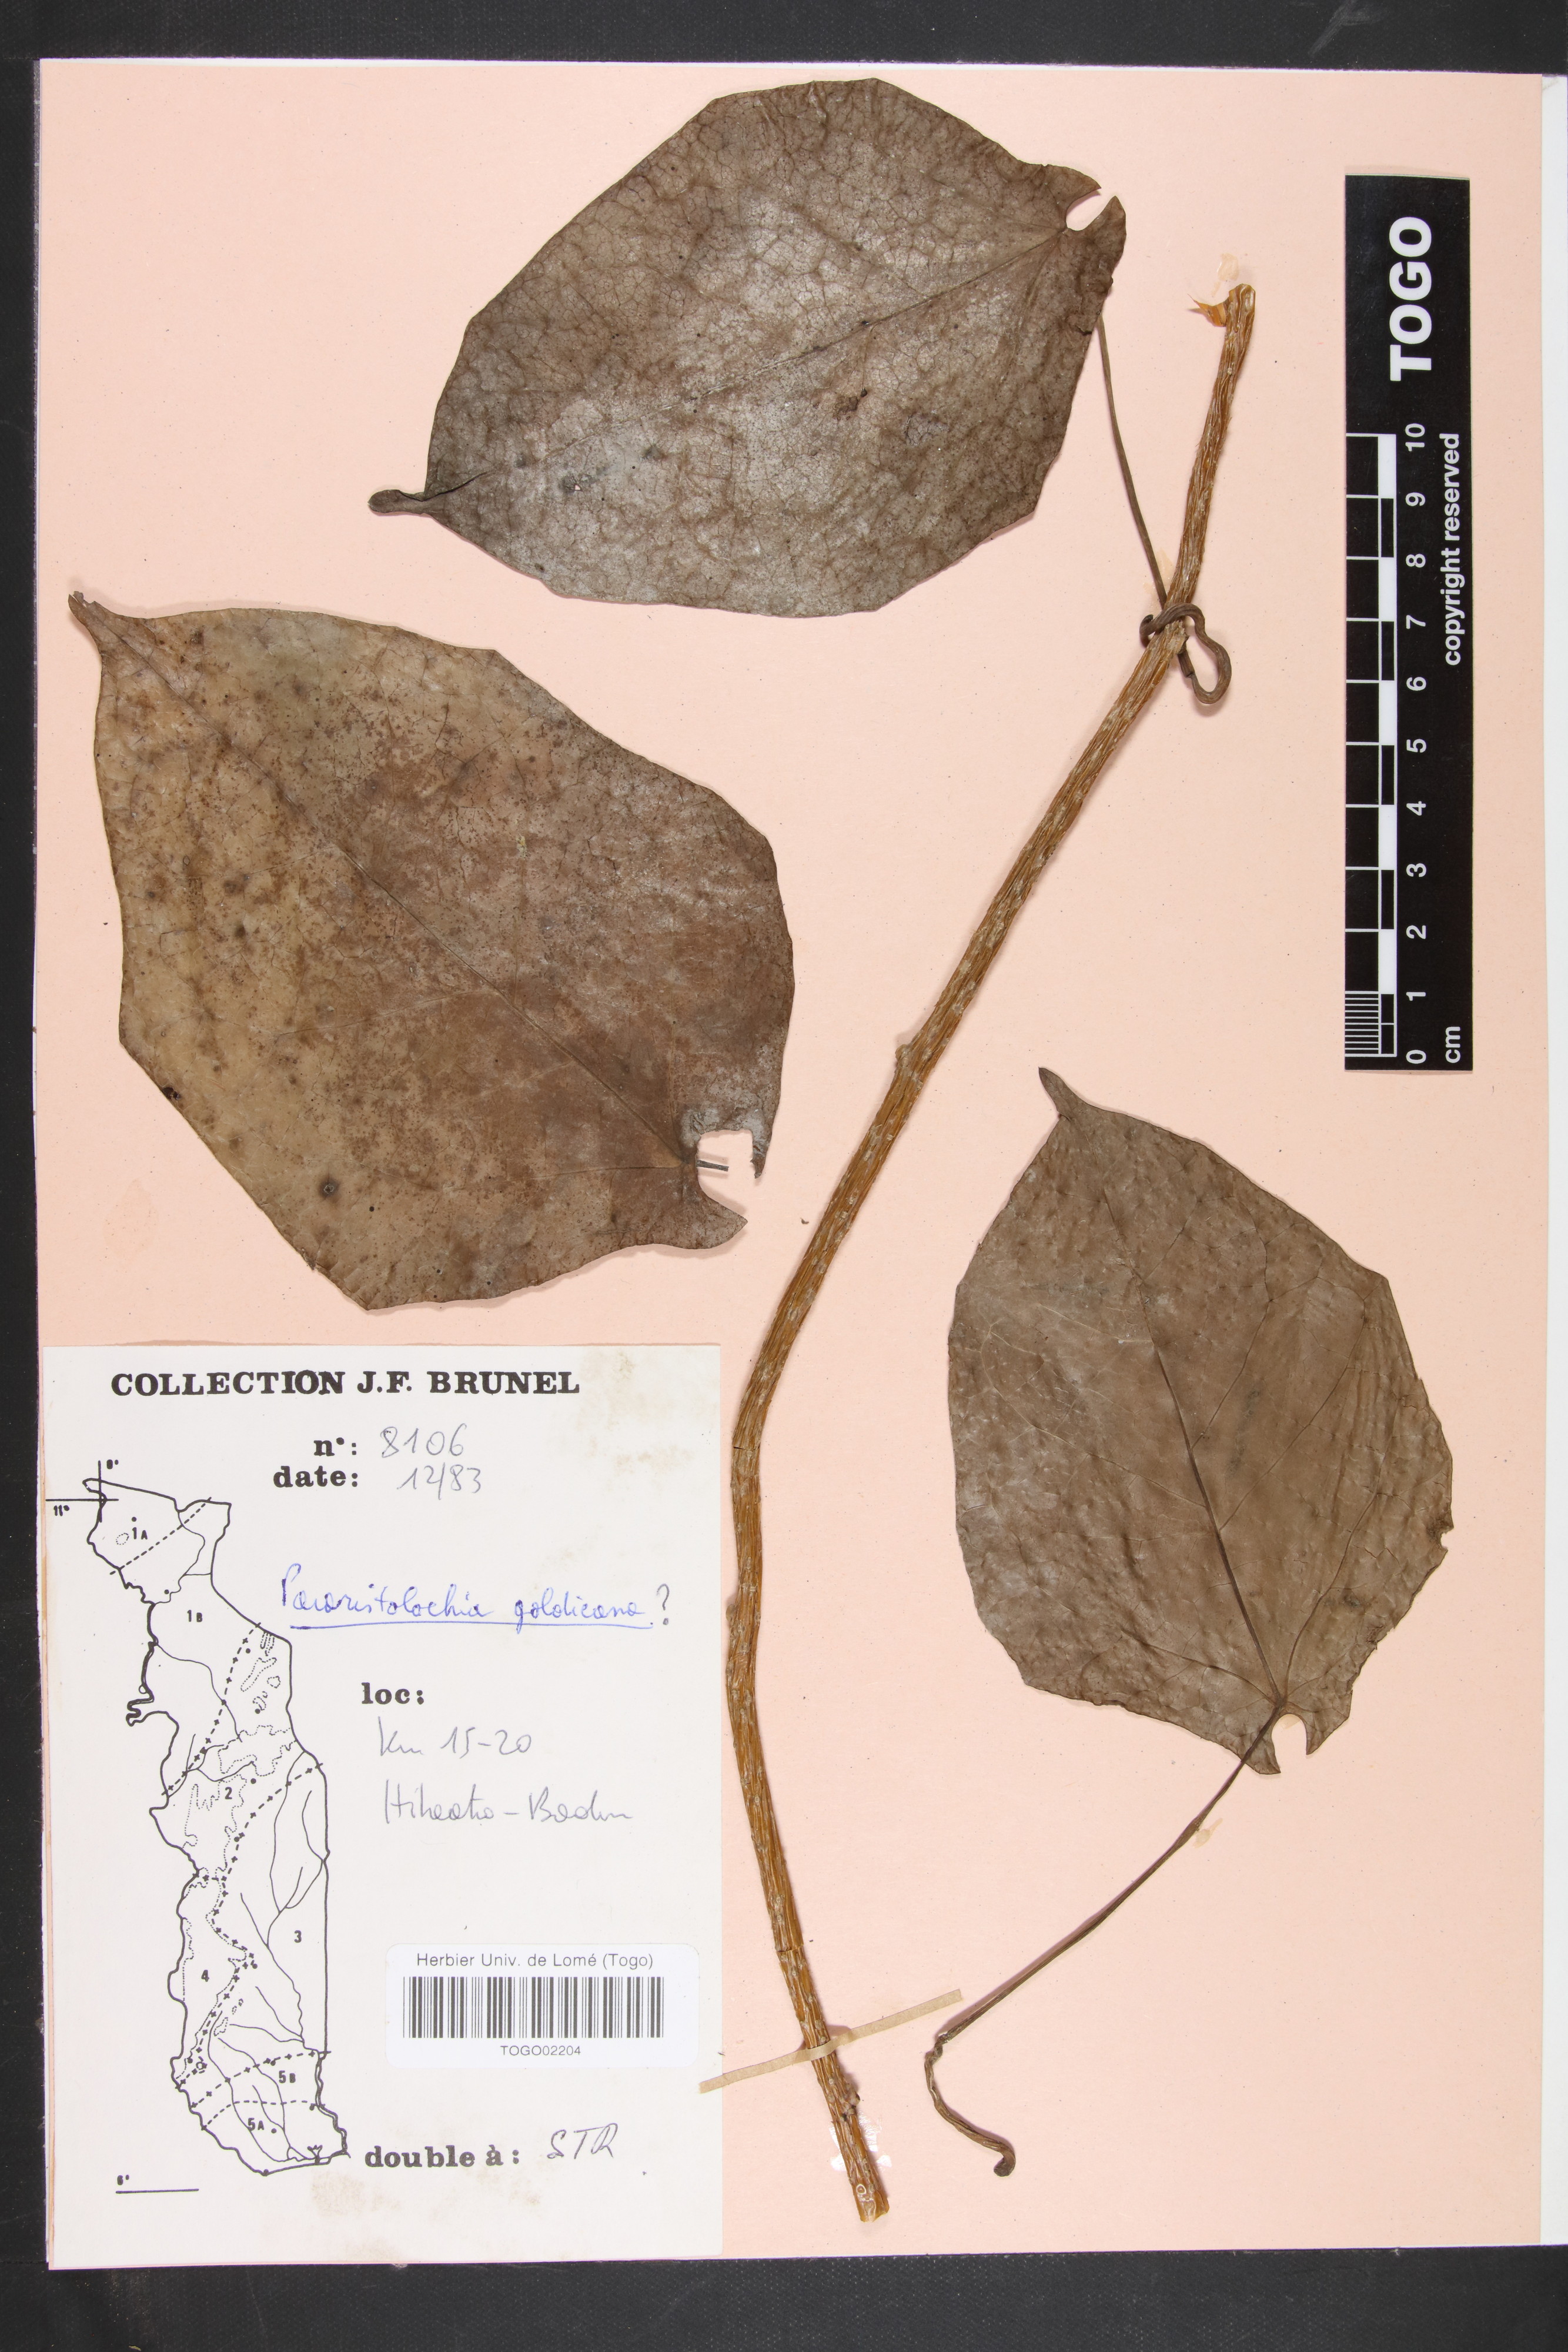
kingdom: Plantae
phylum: Tracheophyta
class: Magnoliopsida
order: Piperales
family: Aristolochiaceae
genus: Aristolochia
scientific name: Aristolochia goldieana
